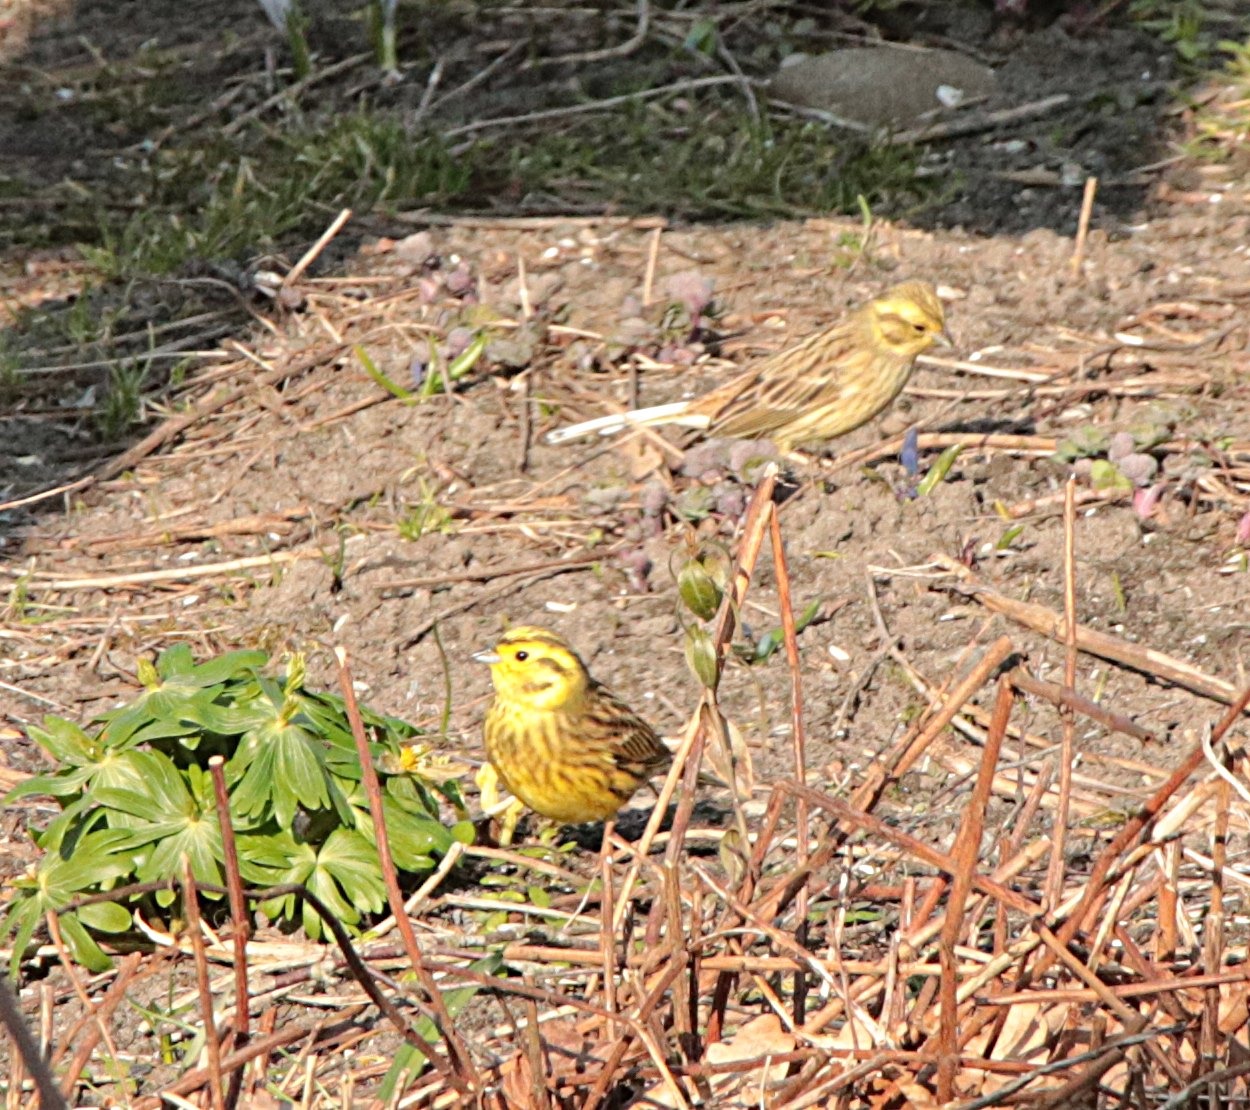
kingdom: Animalia
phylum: Chordata
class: Aves
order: Passeriformes
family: Emberizidae
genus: Emberiza
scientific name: Emberiza citrinella
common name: Gulspurv
